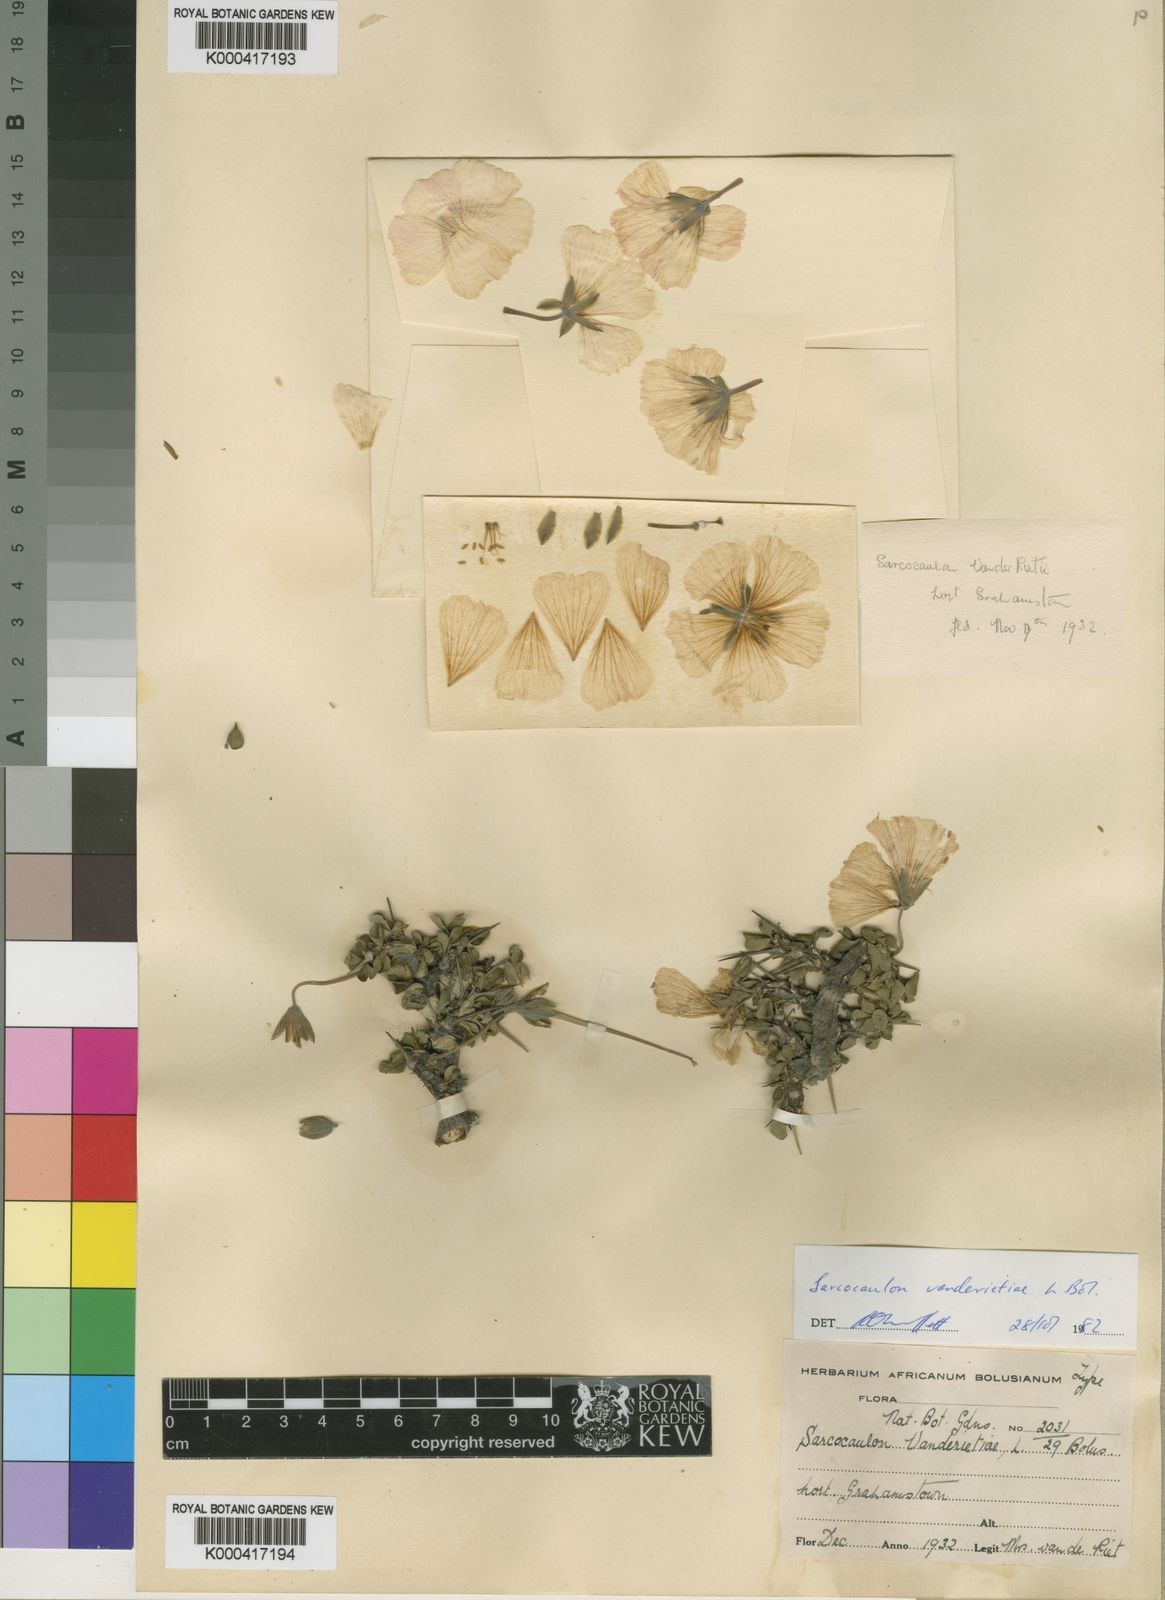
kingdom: Plantae
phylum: Tracheophyta
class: Magnoliopsida
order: Geraniales
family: Geraniaceae
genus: Monsonia
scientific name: Monsonia vanderietiae
